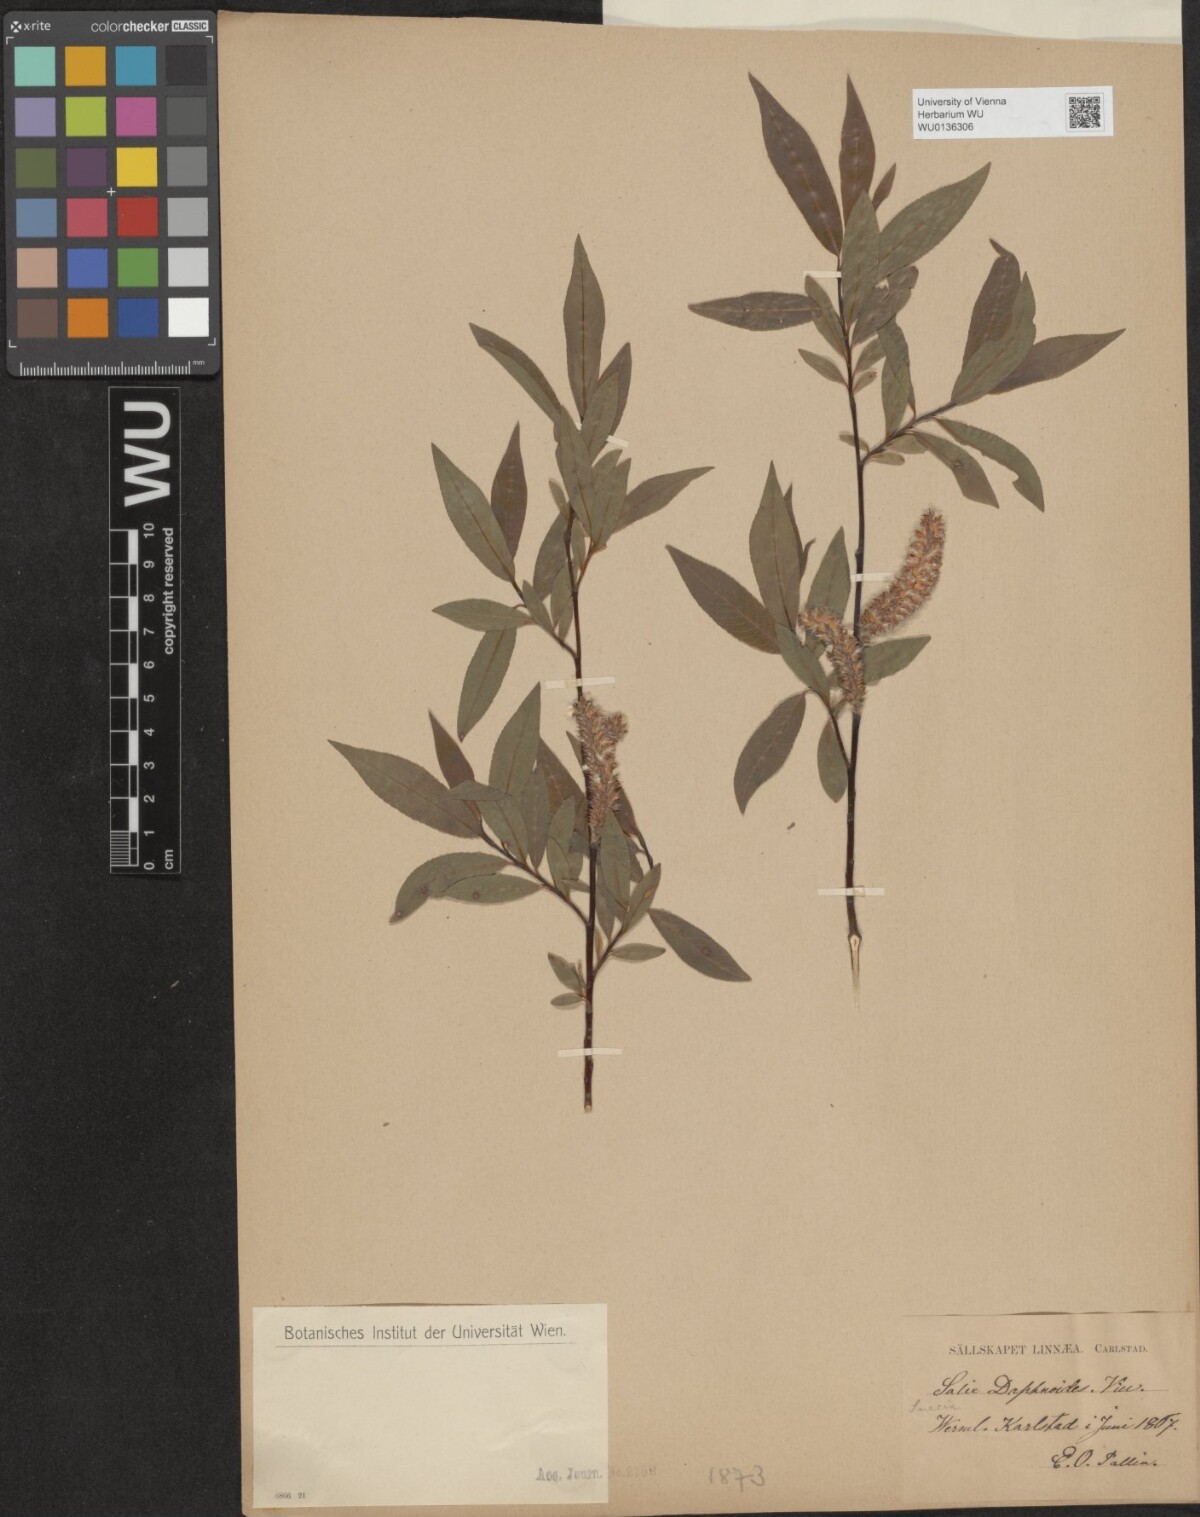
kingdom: Plantae
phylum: Tracheophyta
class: Magnoliopsida
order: Malpighiales
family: Salicaceae
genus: Salix
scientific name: Salix daphnoides
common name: European violet-willow
